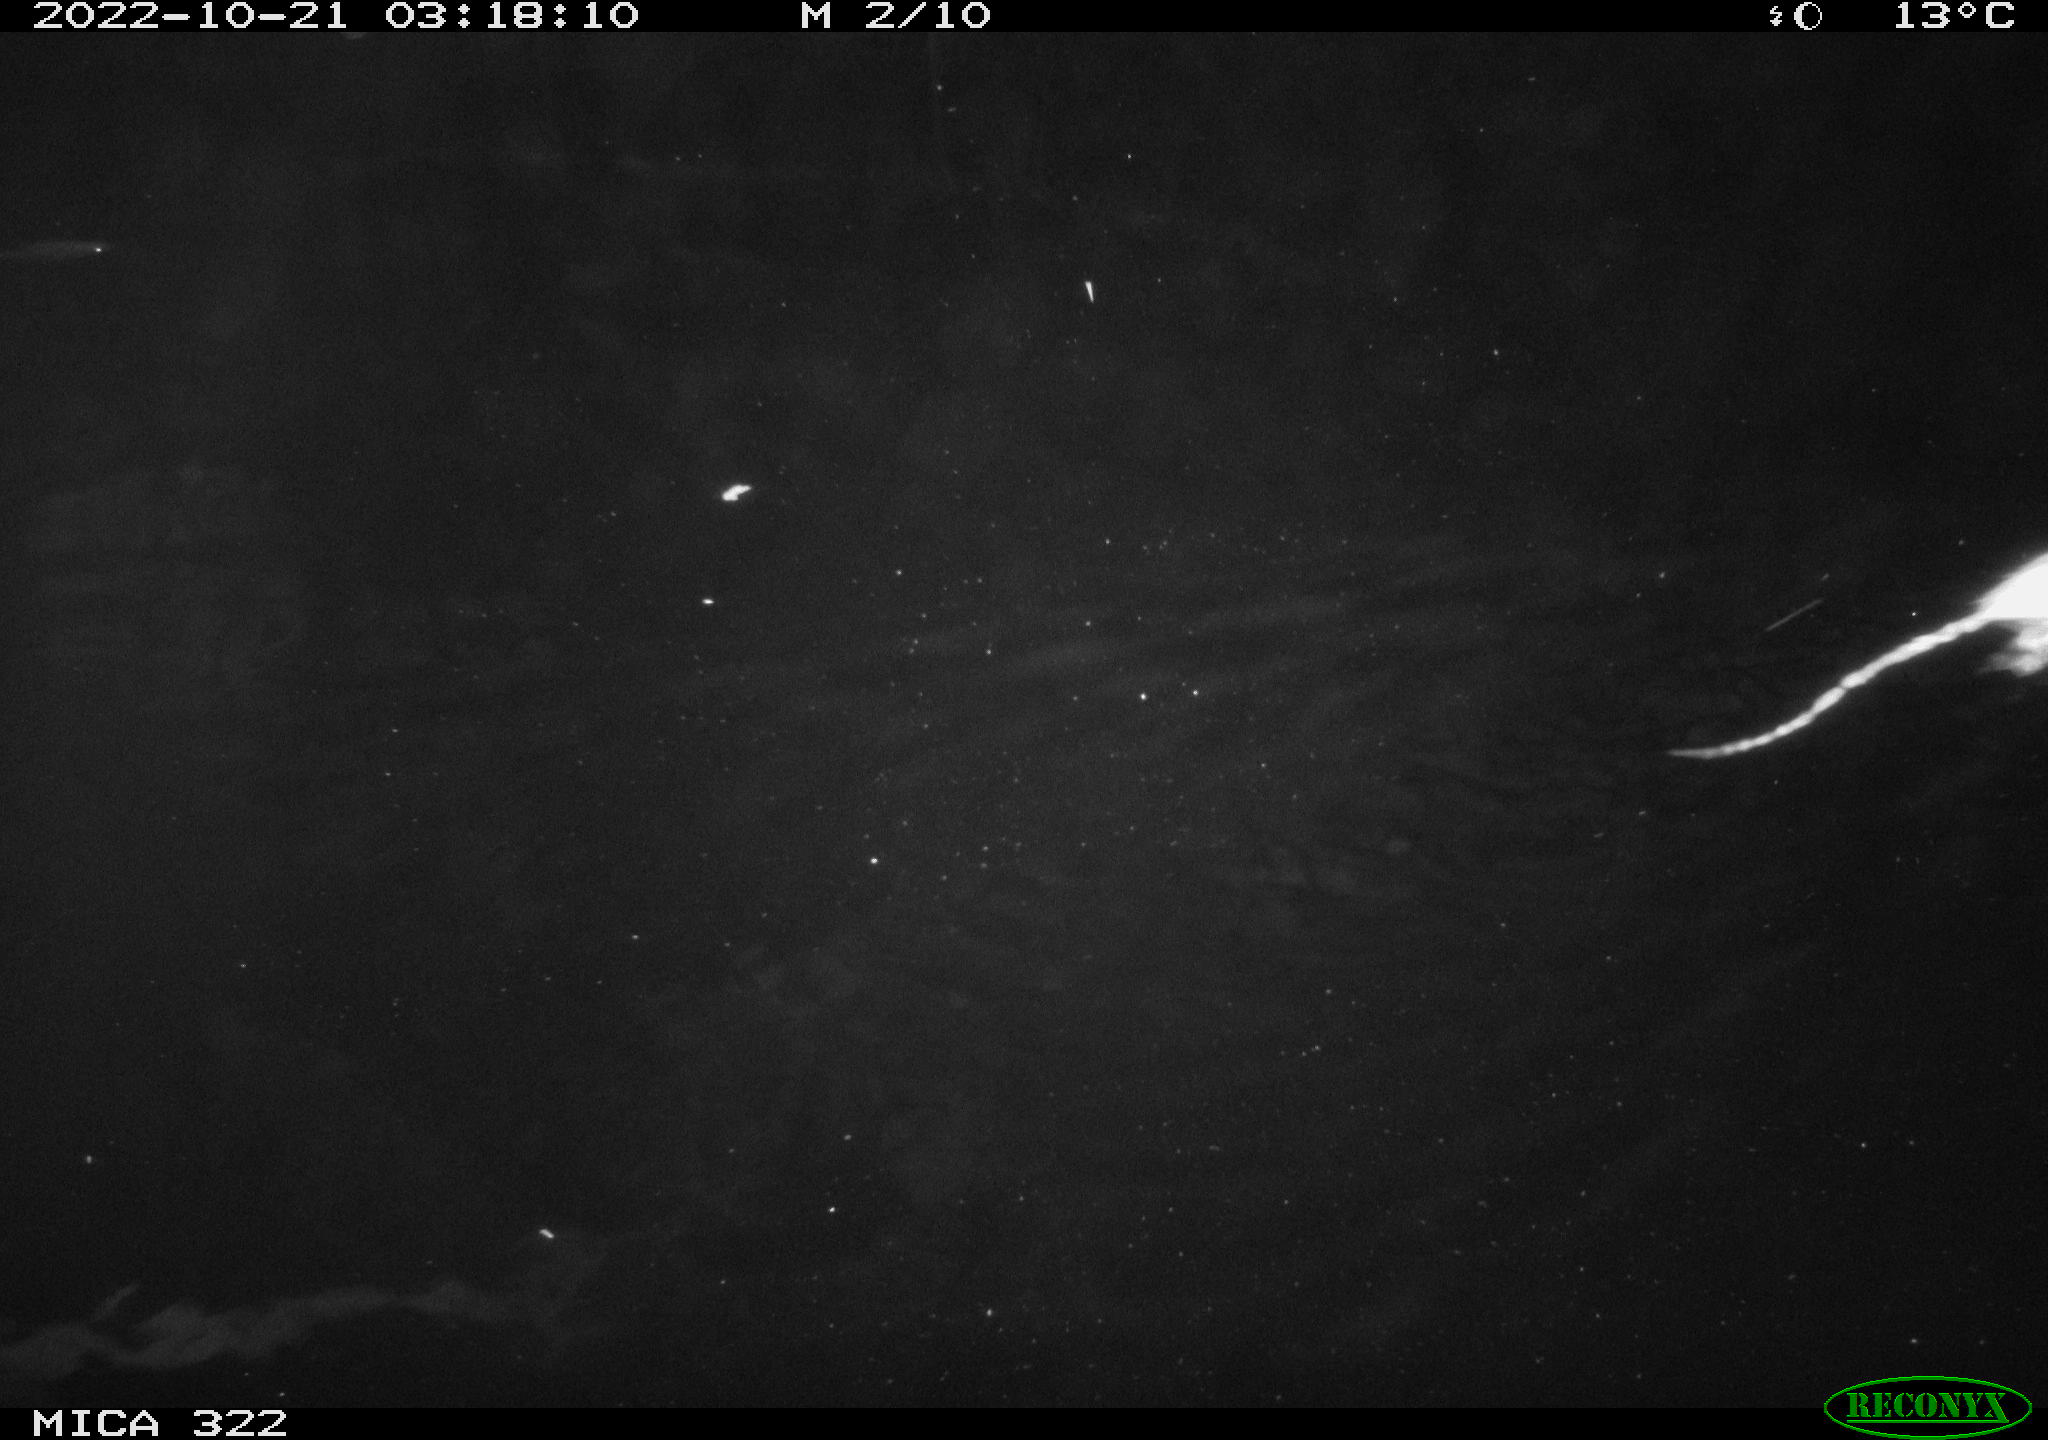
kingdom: Animalia
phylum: Chordata
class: Mammalia
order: Rodentia
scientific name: Rodentia
